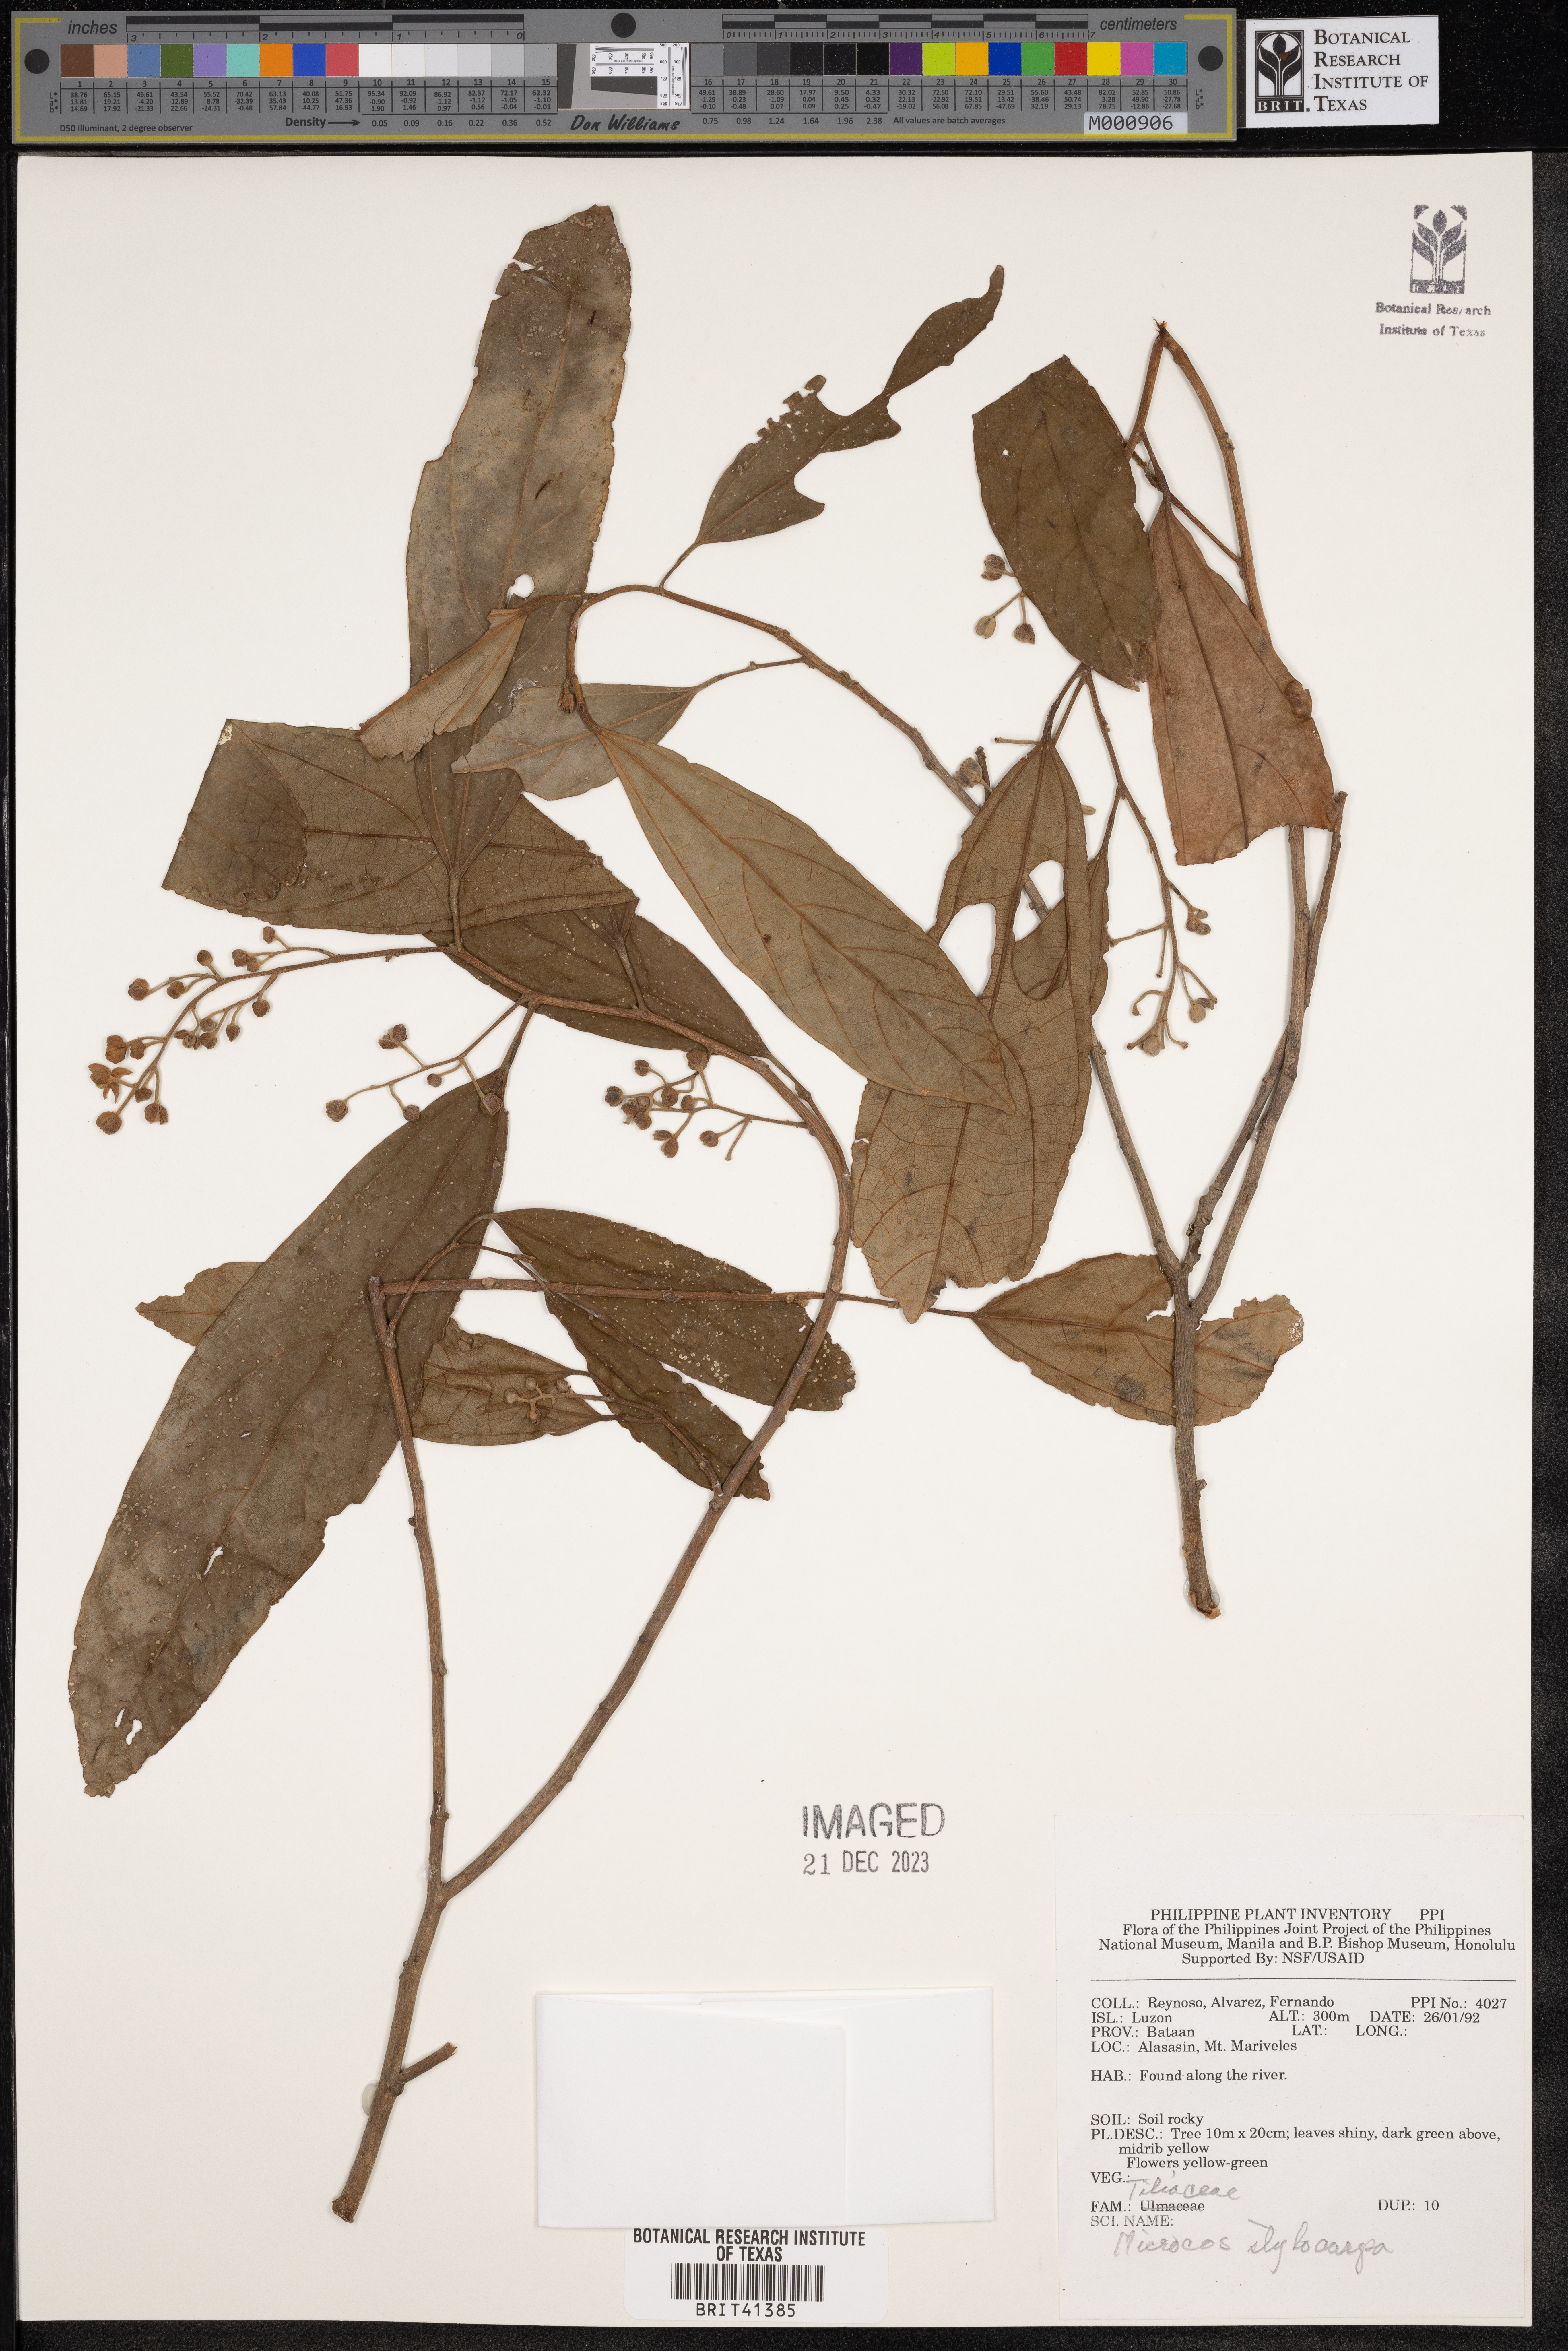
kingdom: Plantae
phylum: Tracheophyta
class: Magnoliopsida
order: Malvales
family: Malvaceae
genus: Microcos
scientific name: Microcos triflora
